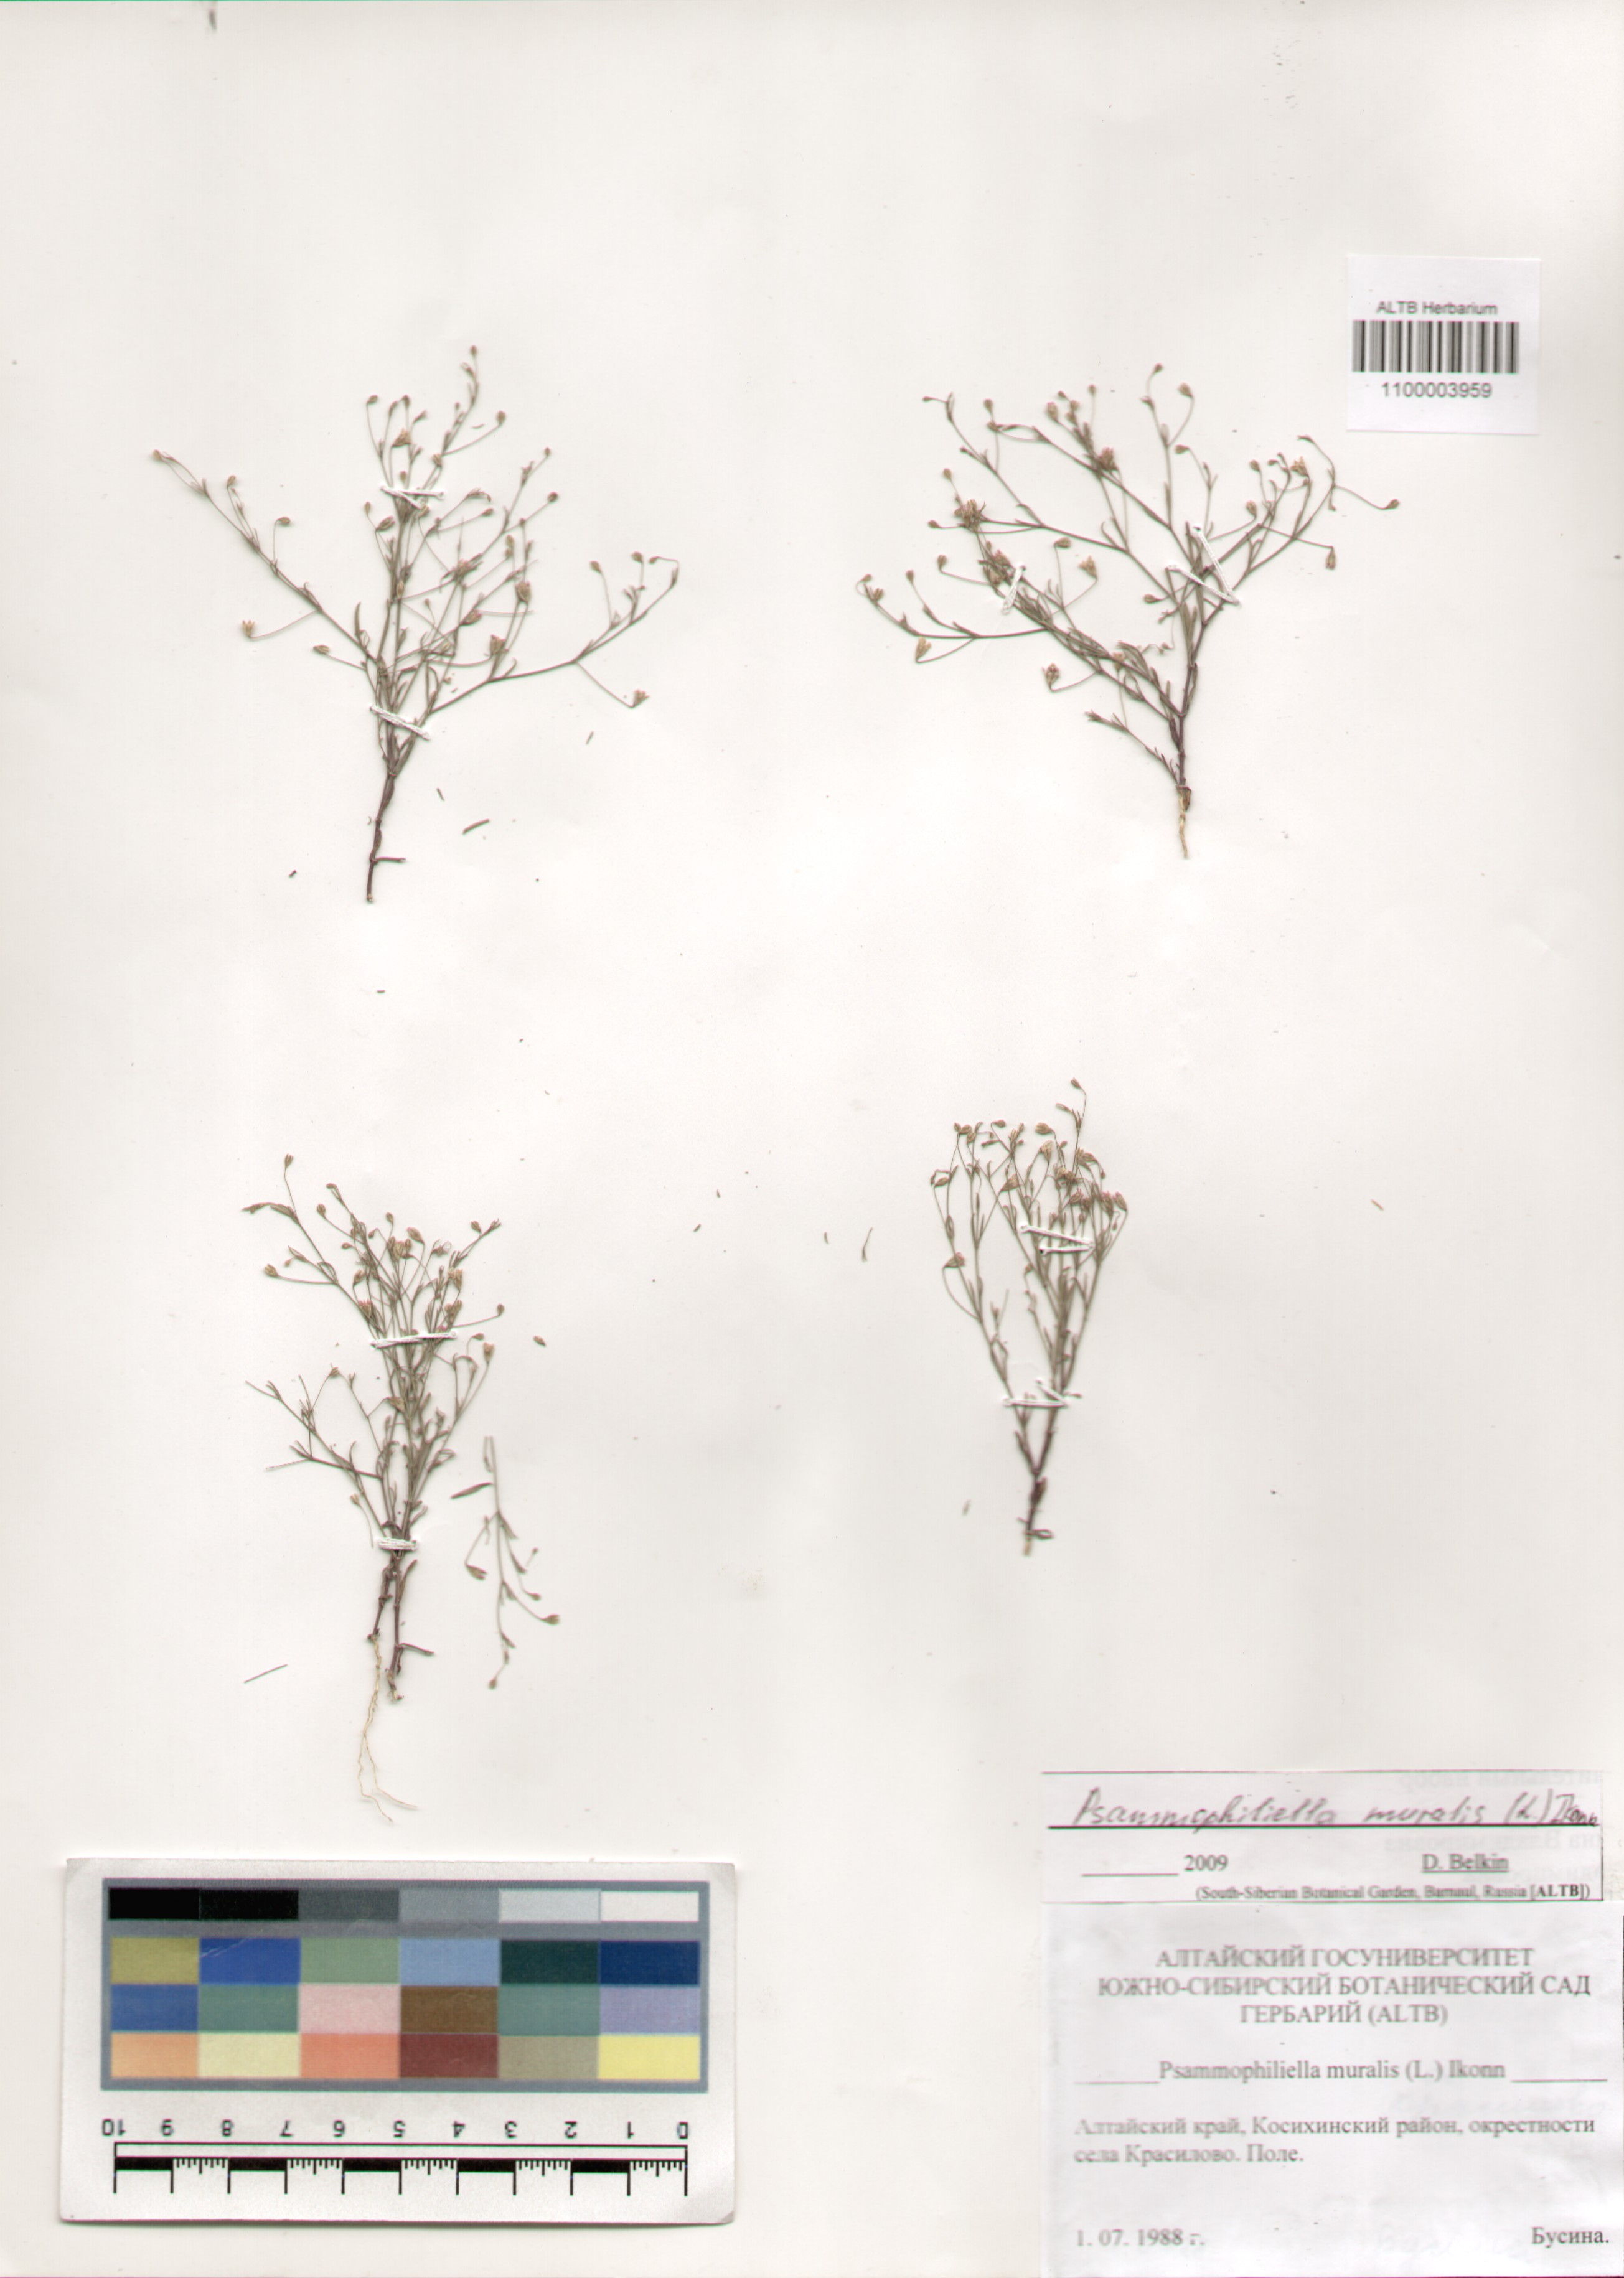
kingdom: Plantae
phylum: Tracheophyta
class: Magnoliopsida
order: Caryophyllales
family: Caryophyllaceae
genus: Psammophiliella
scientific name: Psammophiliella muralis
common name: Cushion baby's-breath
